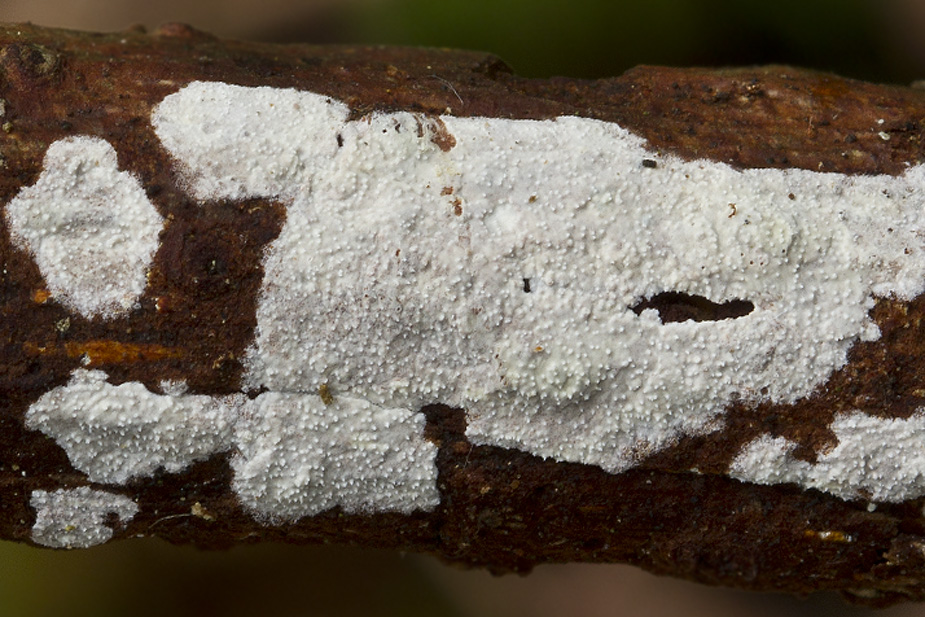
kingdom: Fungi
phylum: Basidiomycota
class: Agaricomycetes
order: Corticiales
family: Corticiaceae
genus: Lyomyces
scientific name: Lyomyces crustosus
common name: vortet hyldehinde
